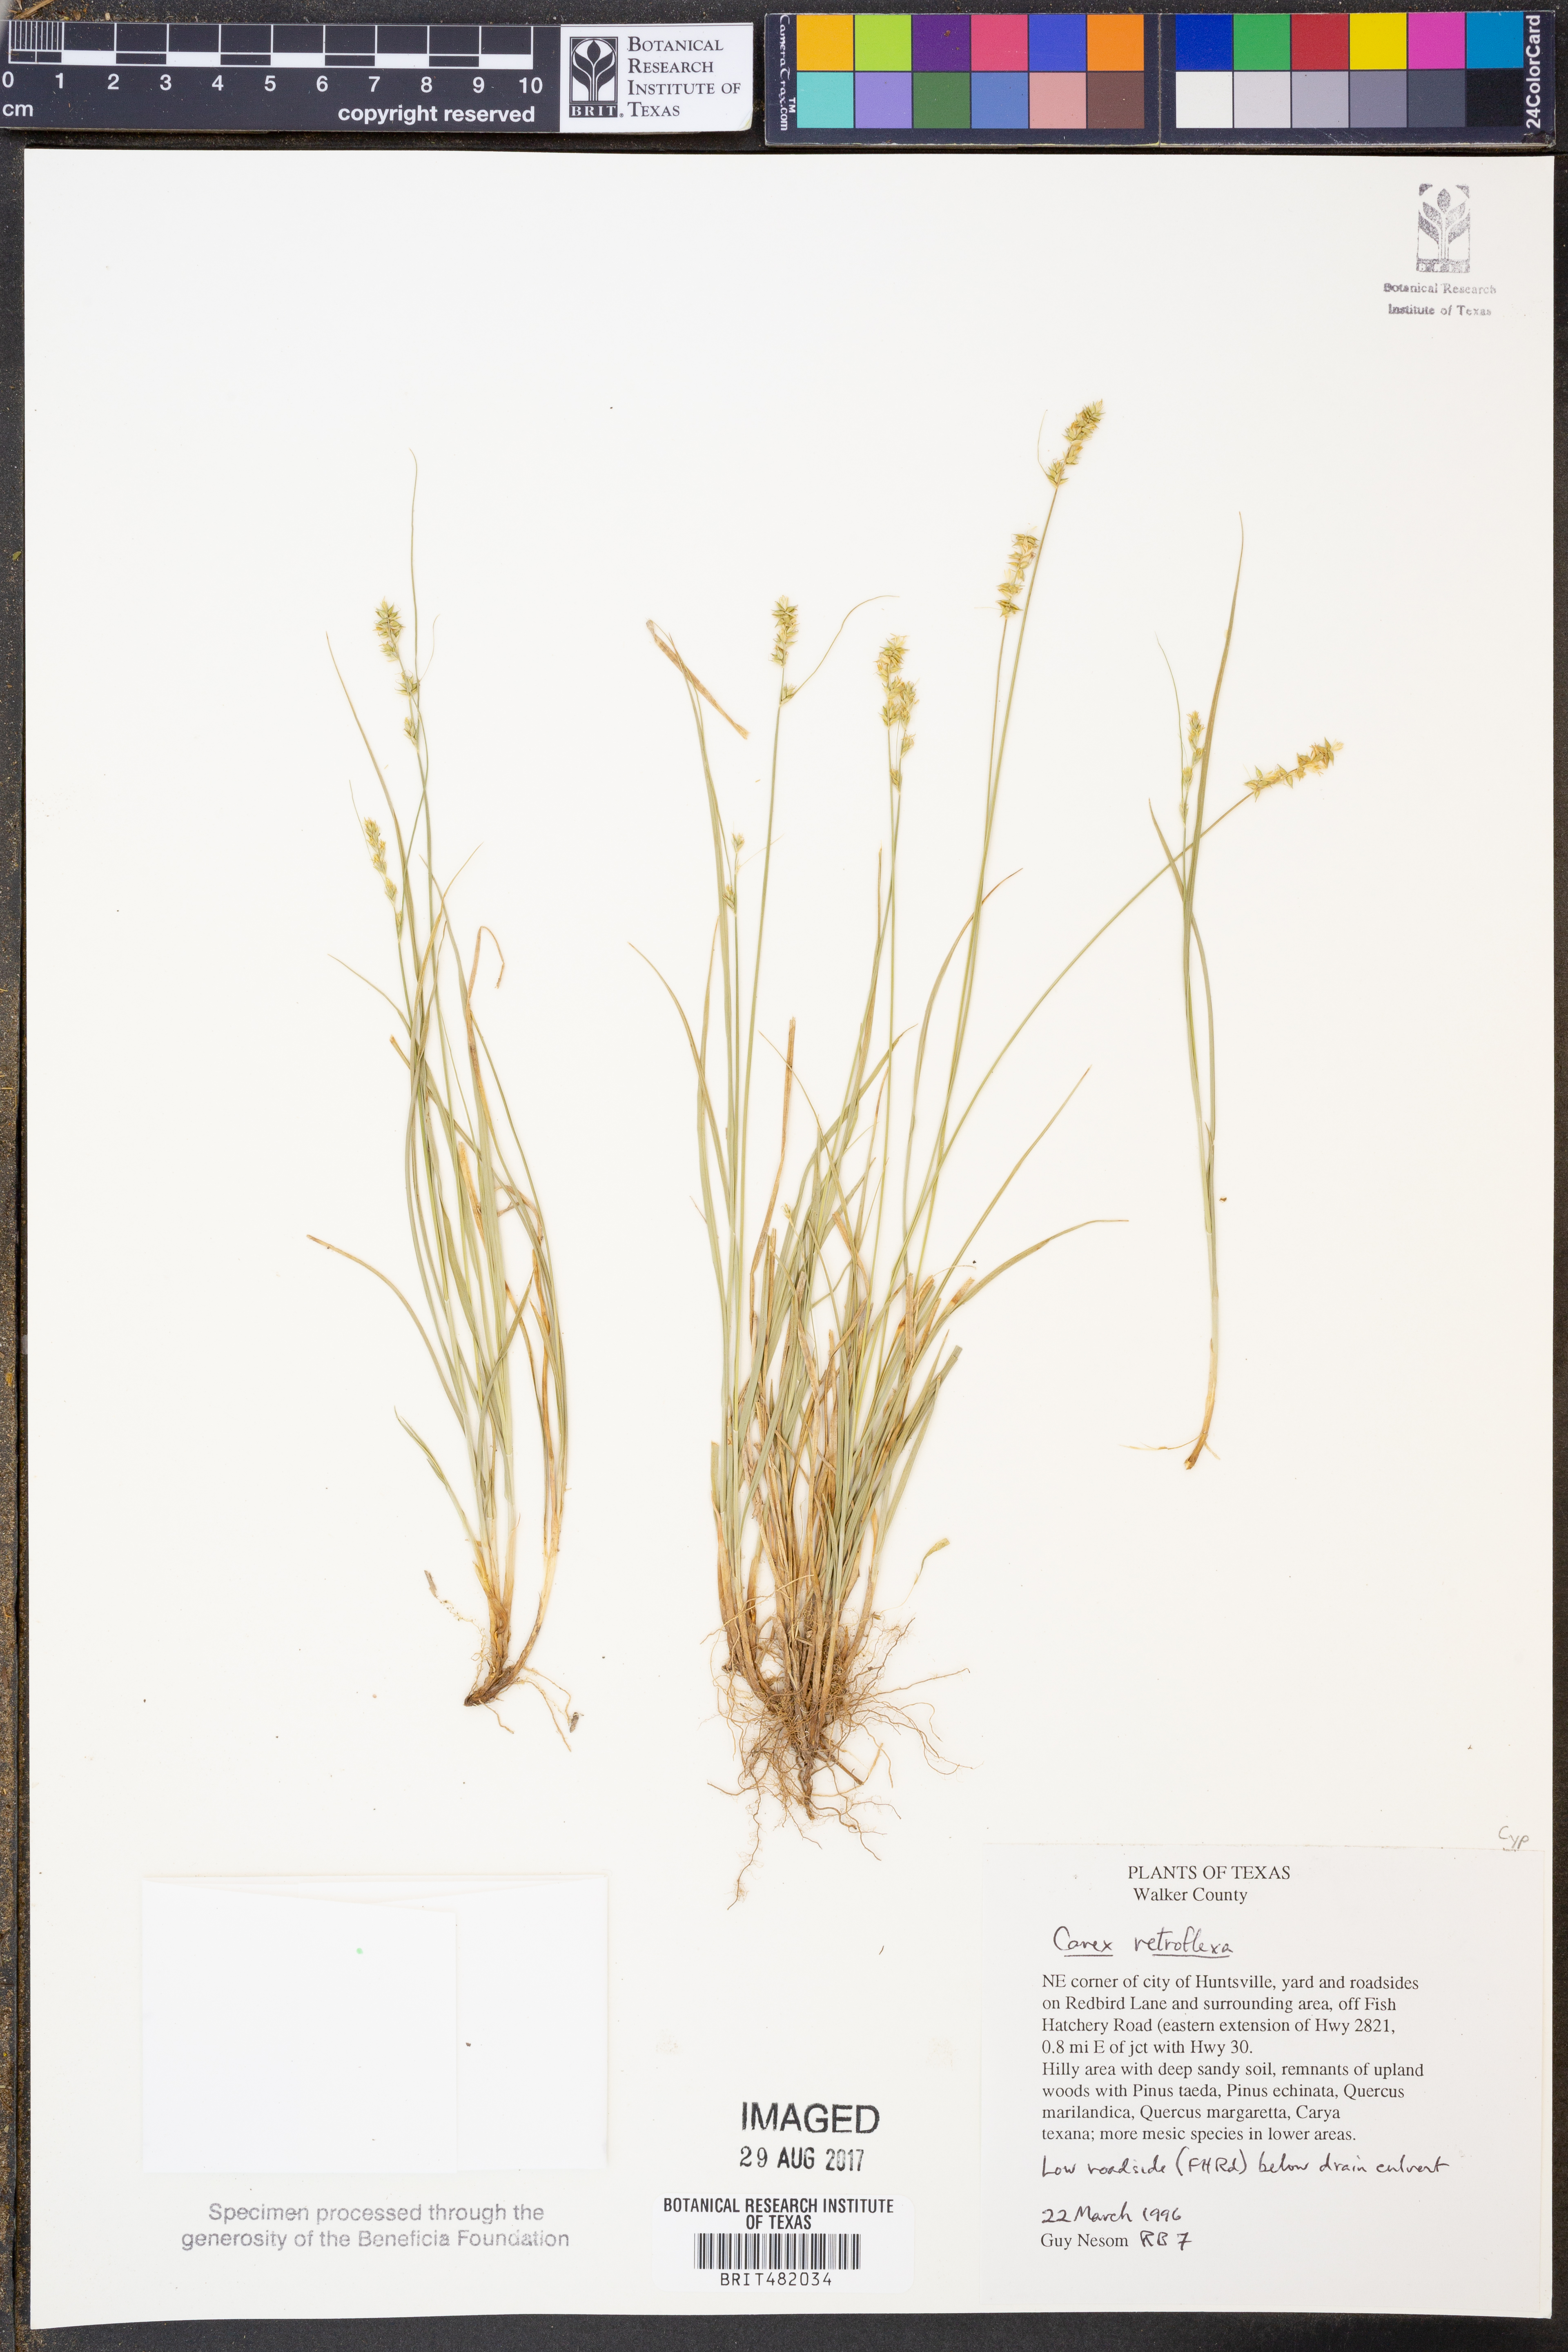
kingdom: Plantae
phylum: Tracheophyta
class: Liliopsida
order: Poales
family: Cyperaceae
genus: Carex
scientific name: Carex retroflexa
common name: Reflexed sedge
